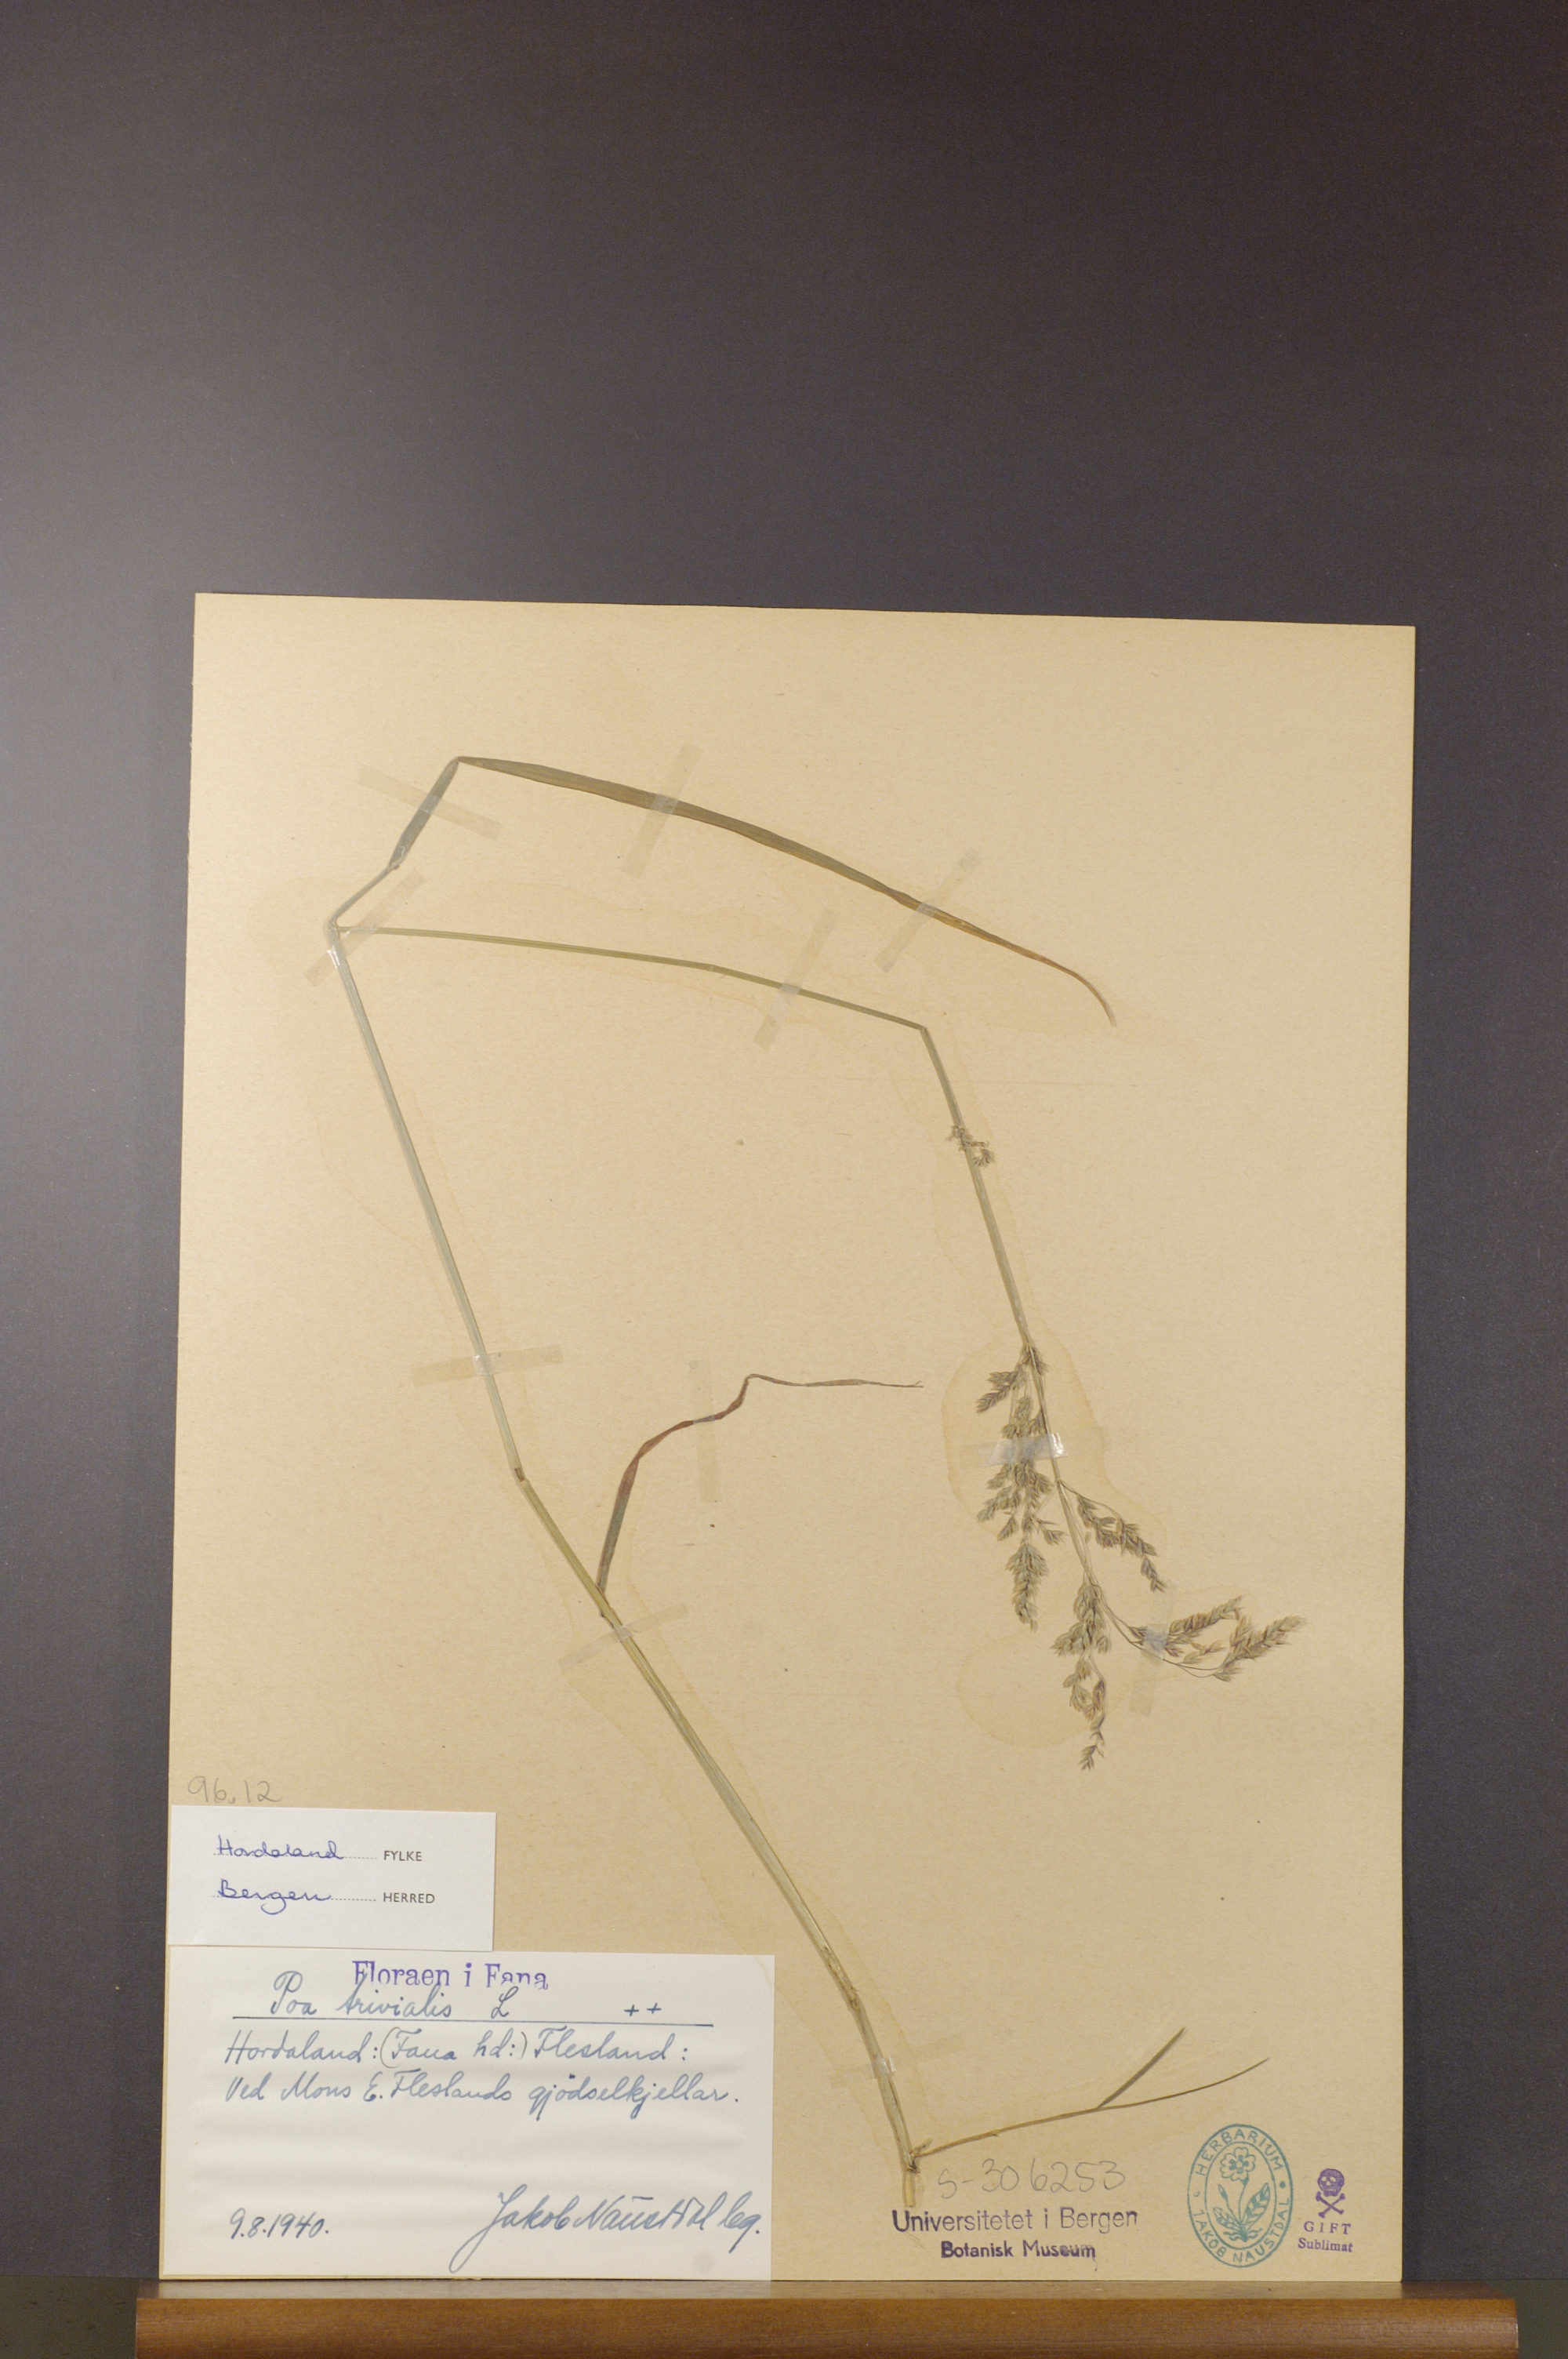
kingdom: Plantae
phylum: Tracheophyta
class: Liliopsida
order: Poales
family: Poaceae
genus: Poa
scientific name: Poa trivialis
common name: Rough bluegrass
